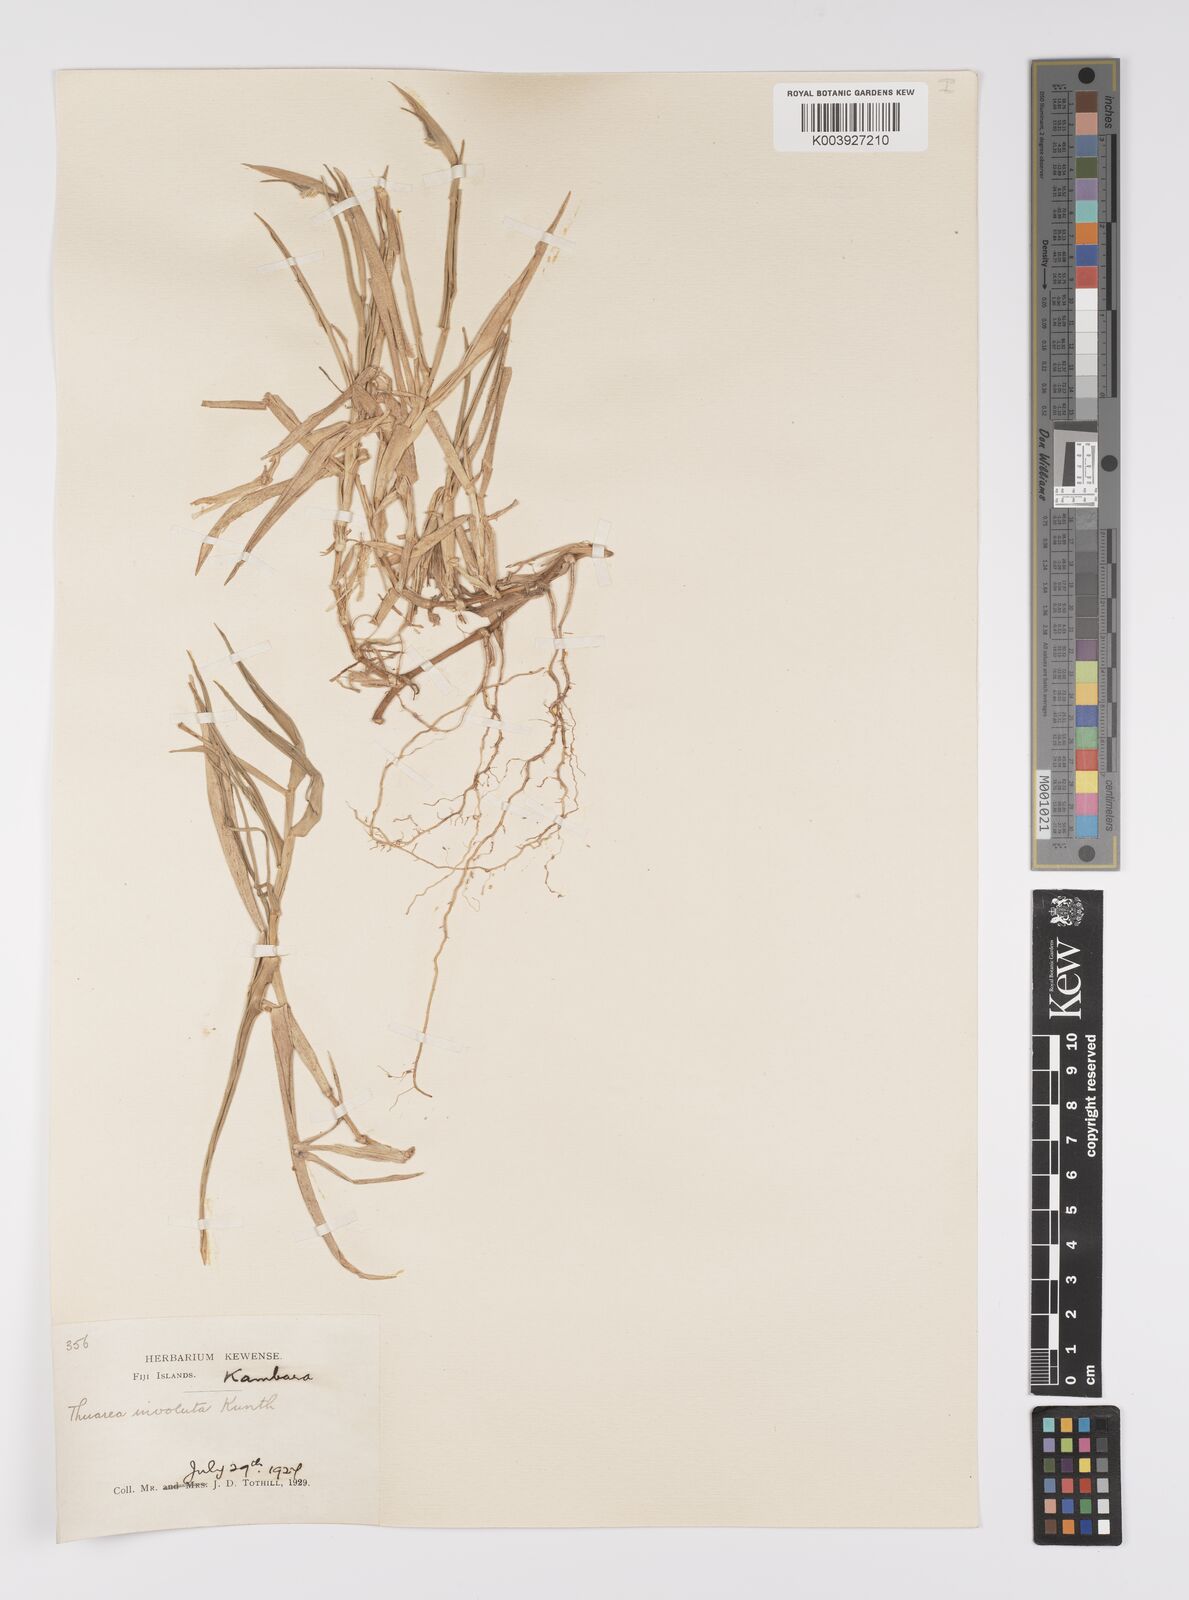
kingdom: Plantae
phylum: Tracheophyta
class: Liliopsida
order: Poales
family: Poaceae
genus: Thuarea
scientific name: Thuarea involuta
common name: Tropical beach grass
